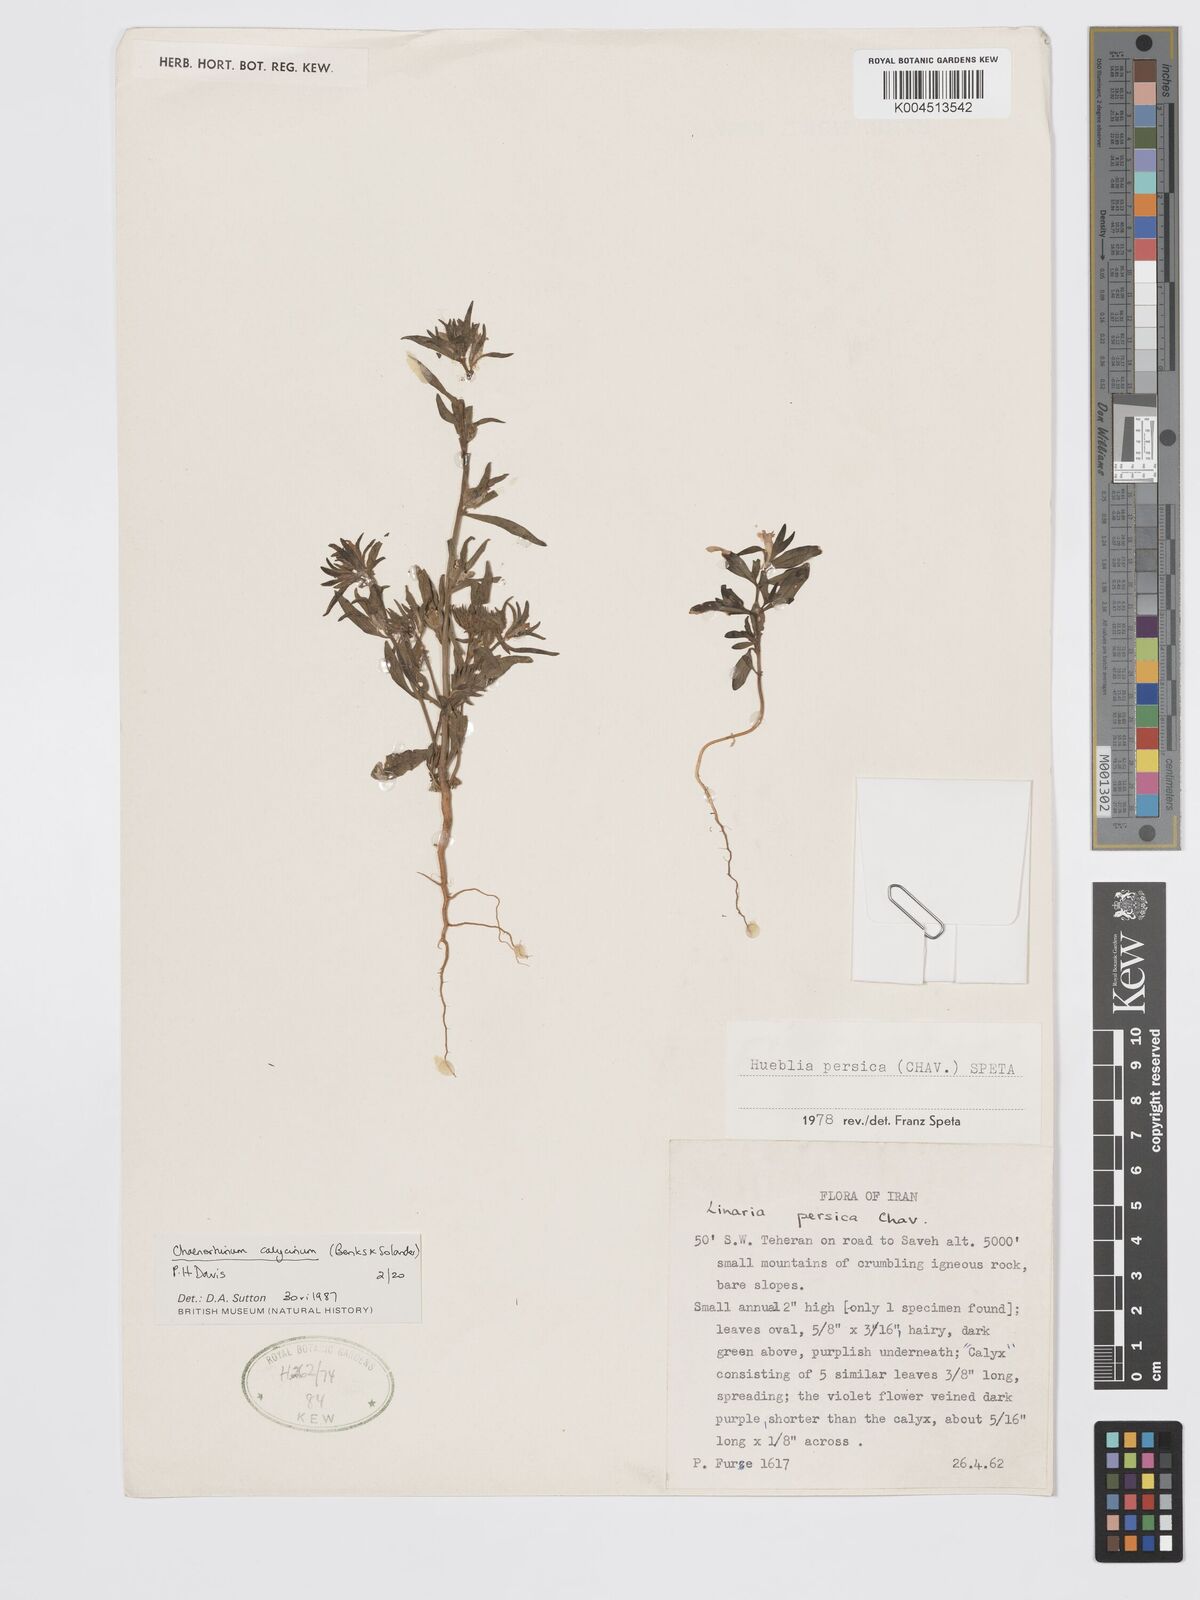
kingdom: Plantae
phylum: Tracheophyta
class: Magnoliopsida
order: Lamiales
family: Plantaginaceae
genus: Chaenorhinum
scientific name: Chaenorhinum calycinum
